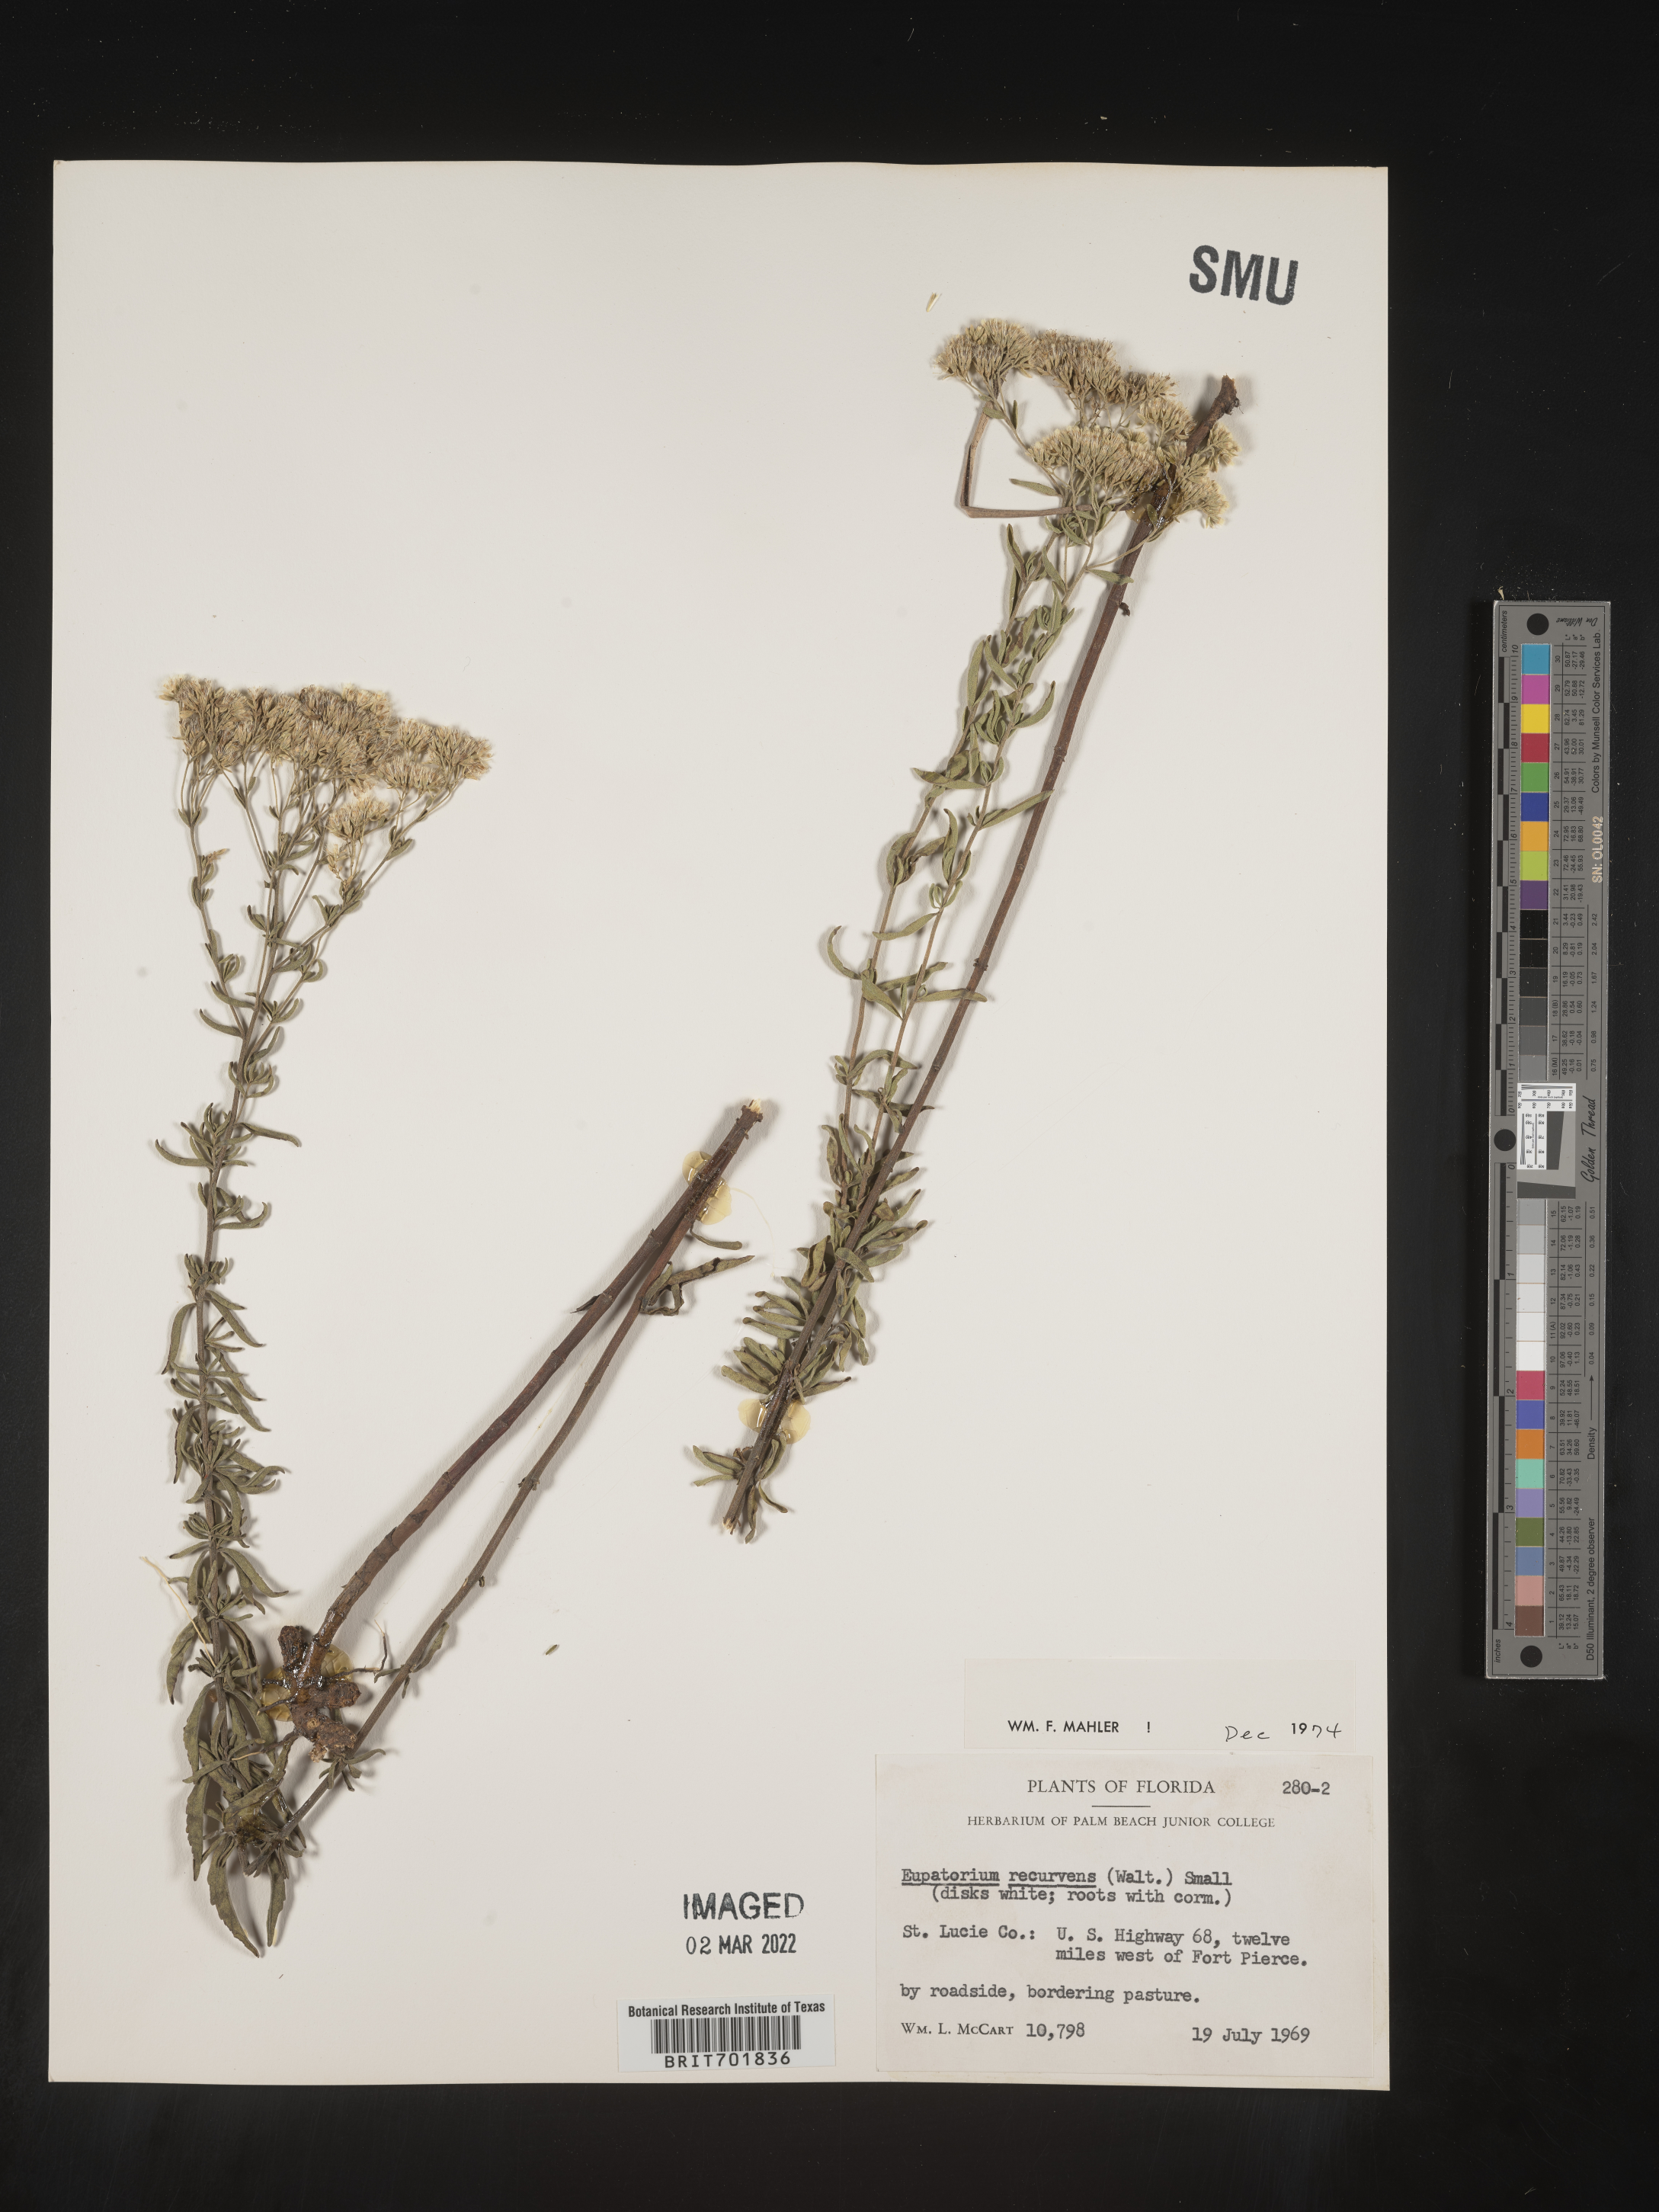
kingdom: Plantae
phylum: Tracheophyta
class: Magnoliopsida
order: Asterales
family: Asteraceae
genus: Eupatorium
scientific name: Eupatorium mohrii
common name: Mohr's thoroughwort
